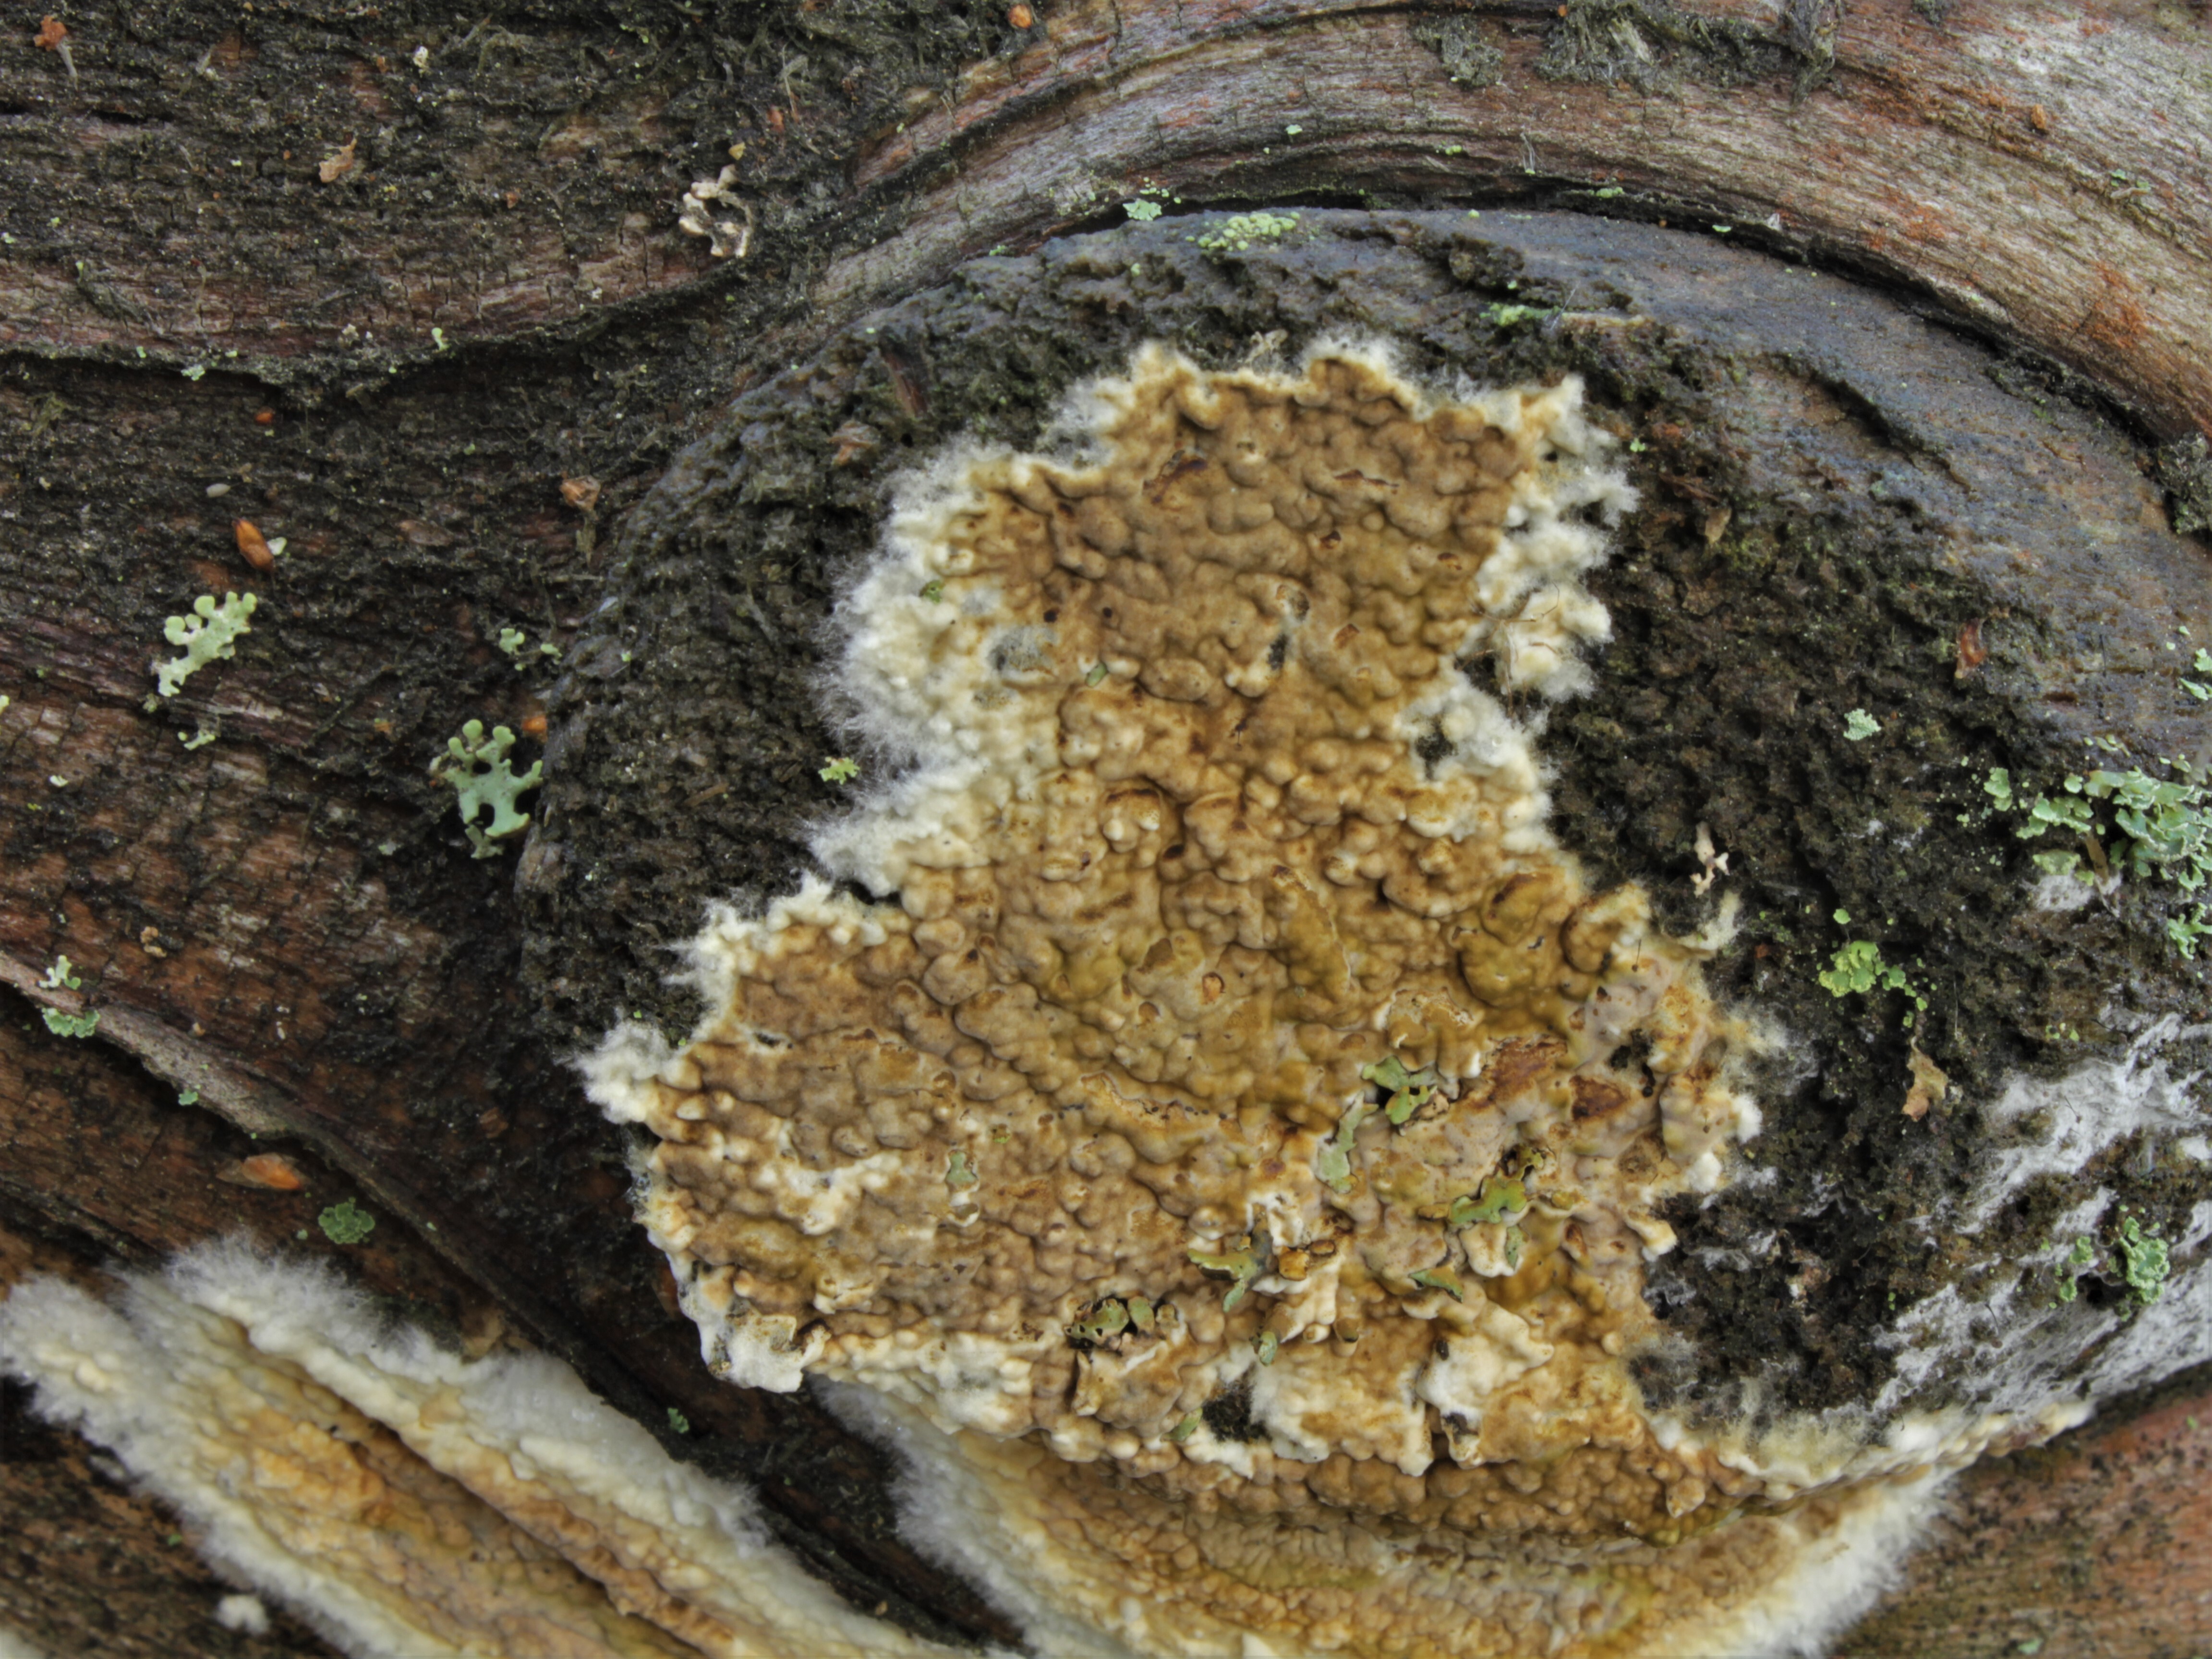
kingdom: Fungi
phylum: Basidiomycota
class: Agaricomycetes
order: Boletales
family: Coniophoraceae
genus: Coniophora
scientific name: Coniophora puteana
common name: Cellar fungus
